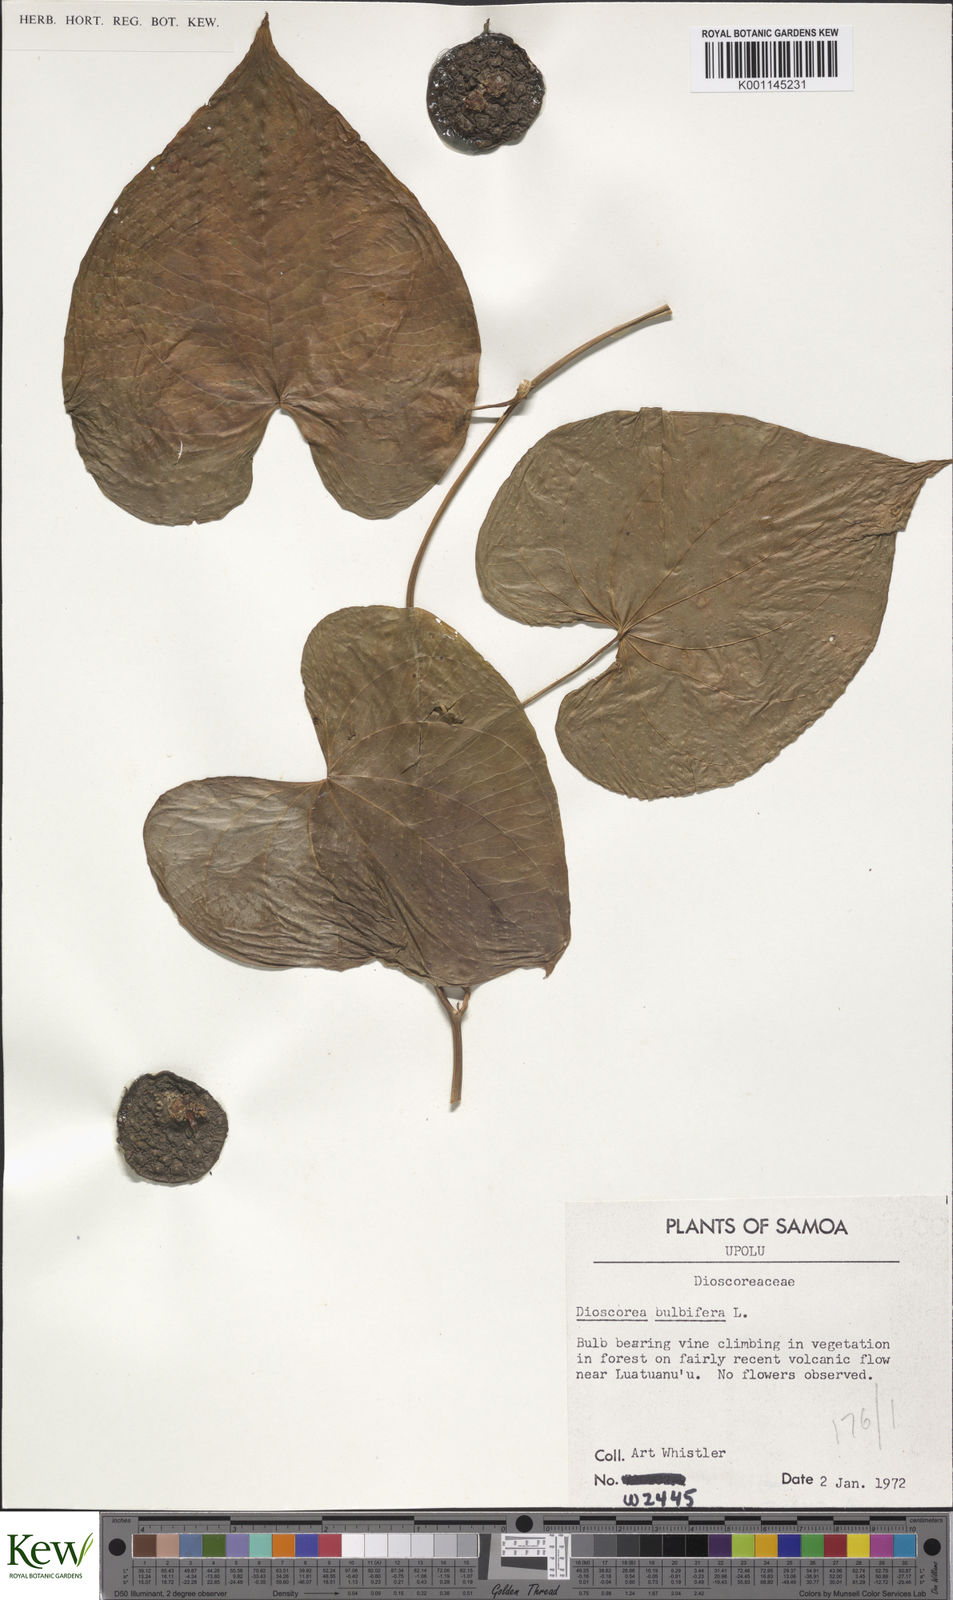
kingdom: Plantae
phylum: Tracheophyta
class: Liliopsida
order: Dioscoreales
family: Dioscoreaceae
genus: Dioscorea
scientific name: Dioscorea bulbifera
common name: Air yam
